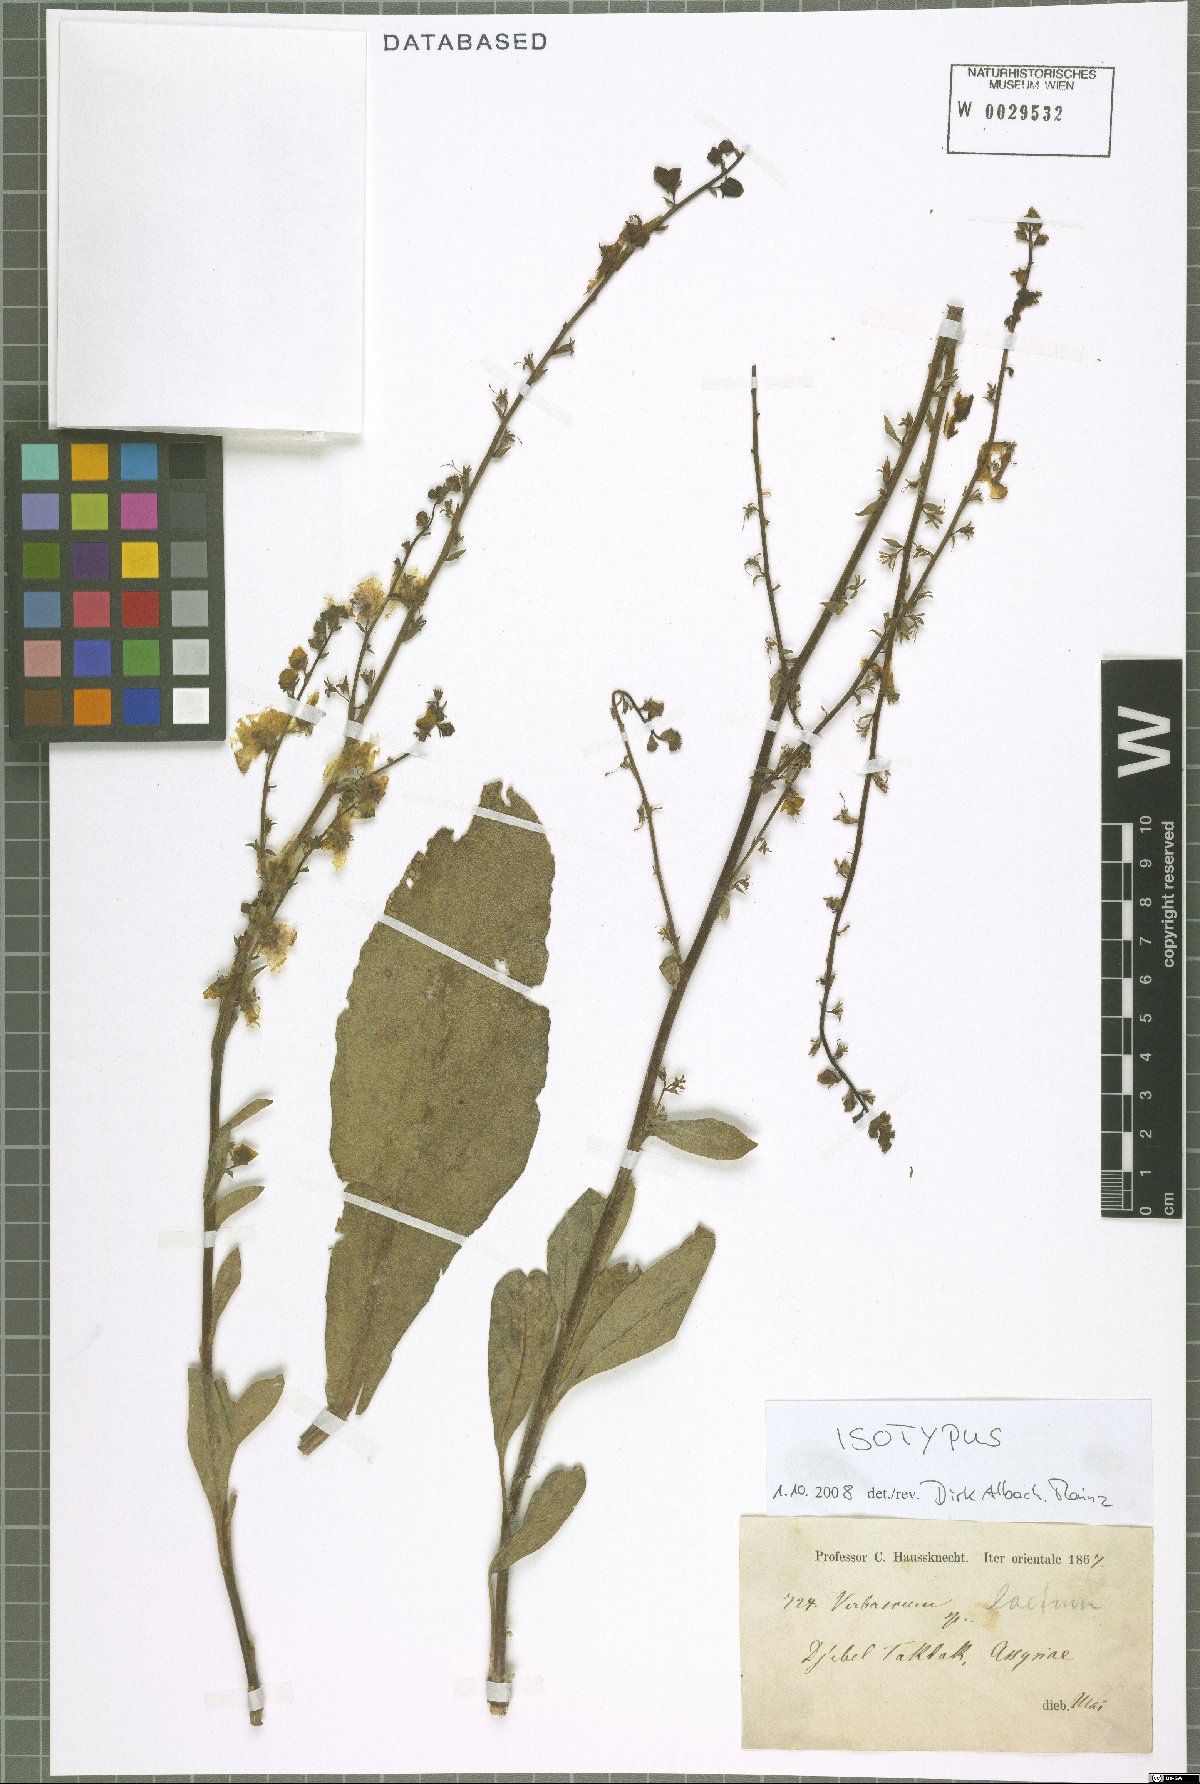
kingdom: Plantae
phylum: Tracheophyta
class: Magnoliopsida
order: Lamiales
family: Scrophulariaceae
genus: Verbascum
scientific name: Verbascum laetum
